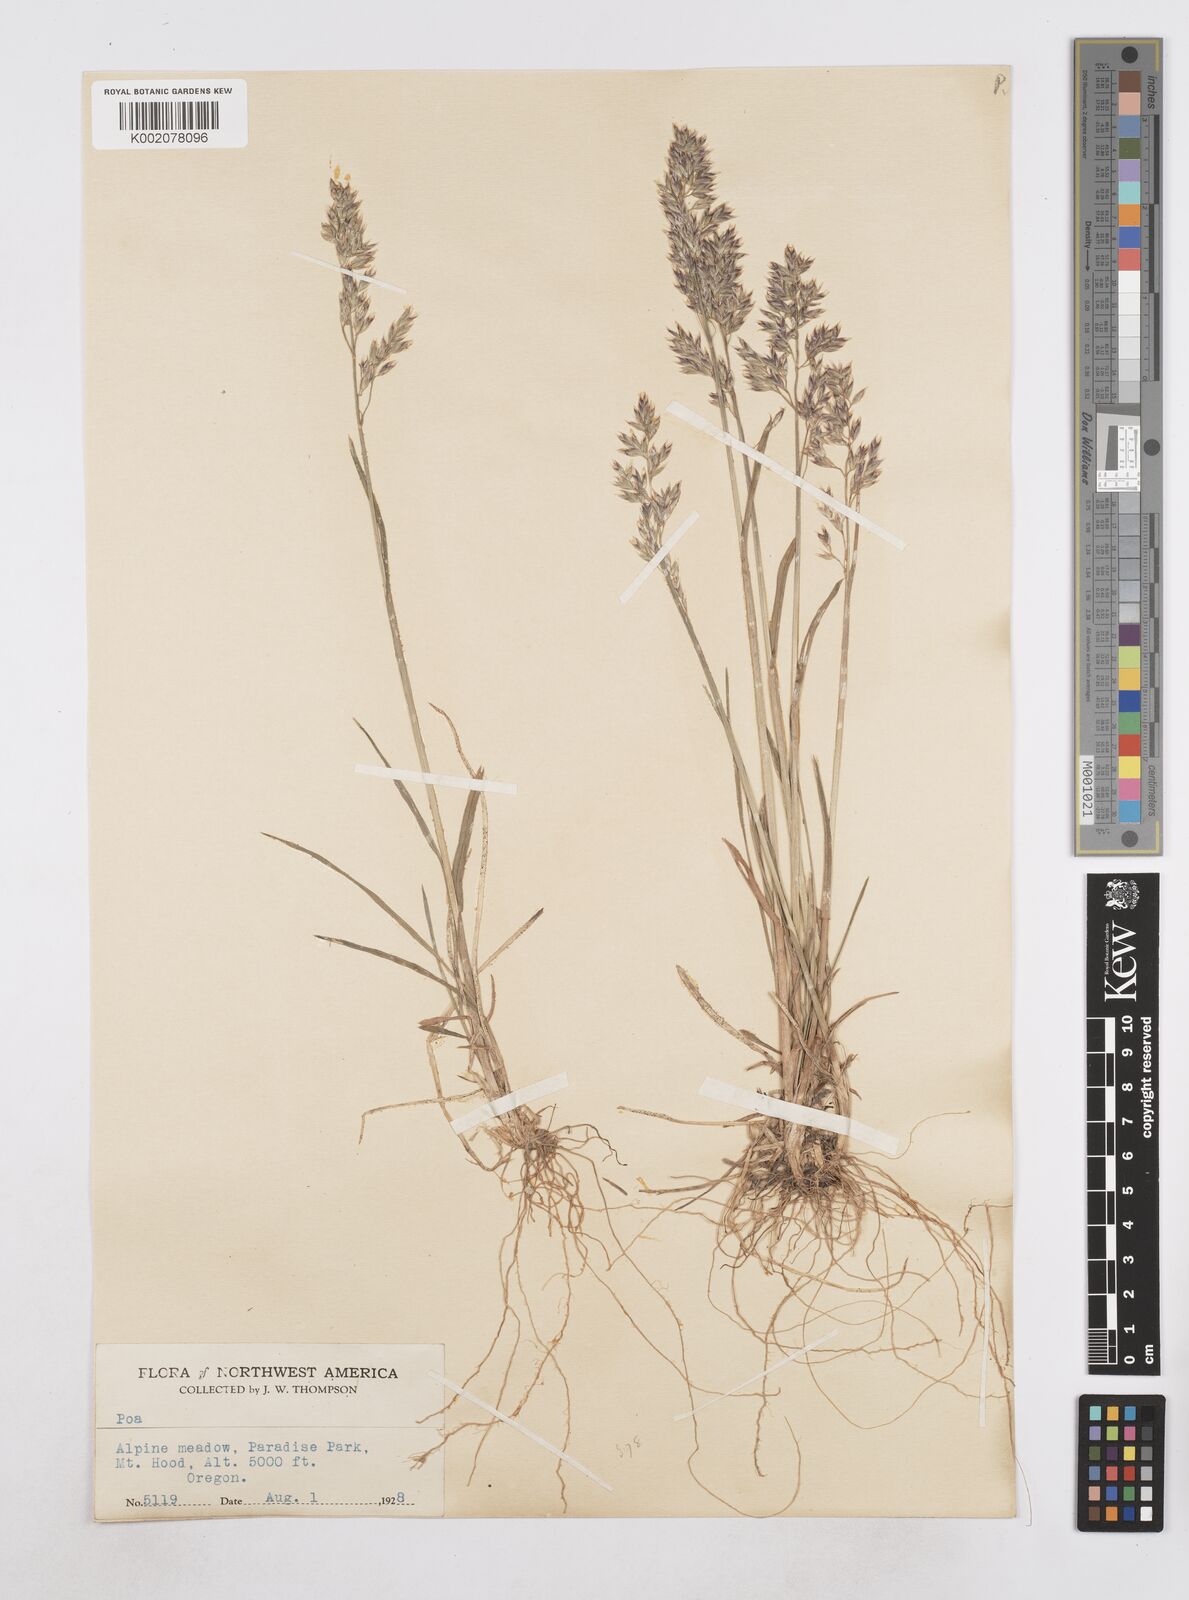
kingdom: Plantae
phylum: Tracheophyta
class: Liliopsida
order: Poales
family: Poaceae
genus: Poa
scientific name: Poa
